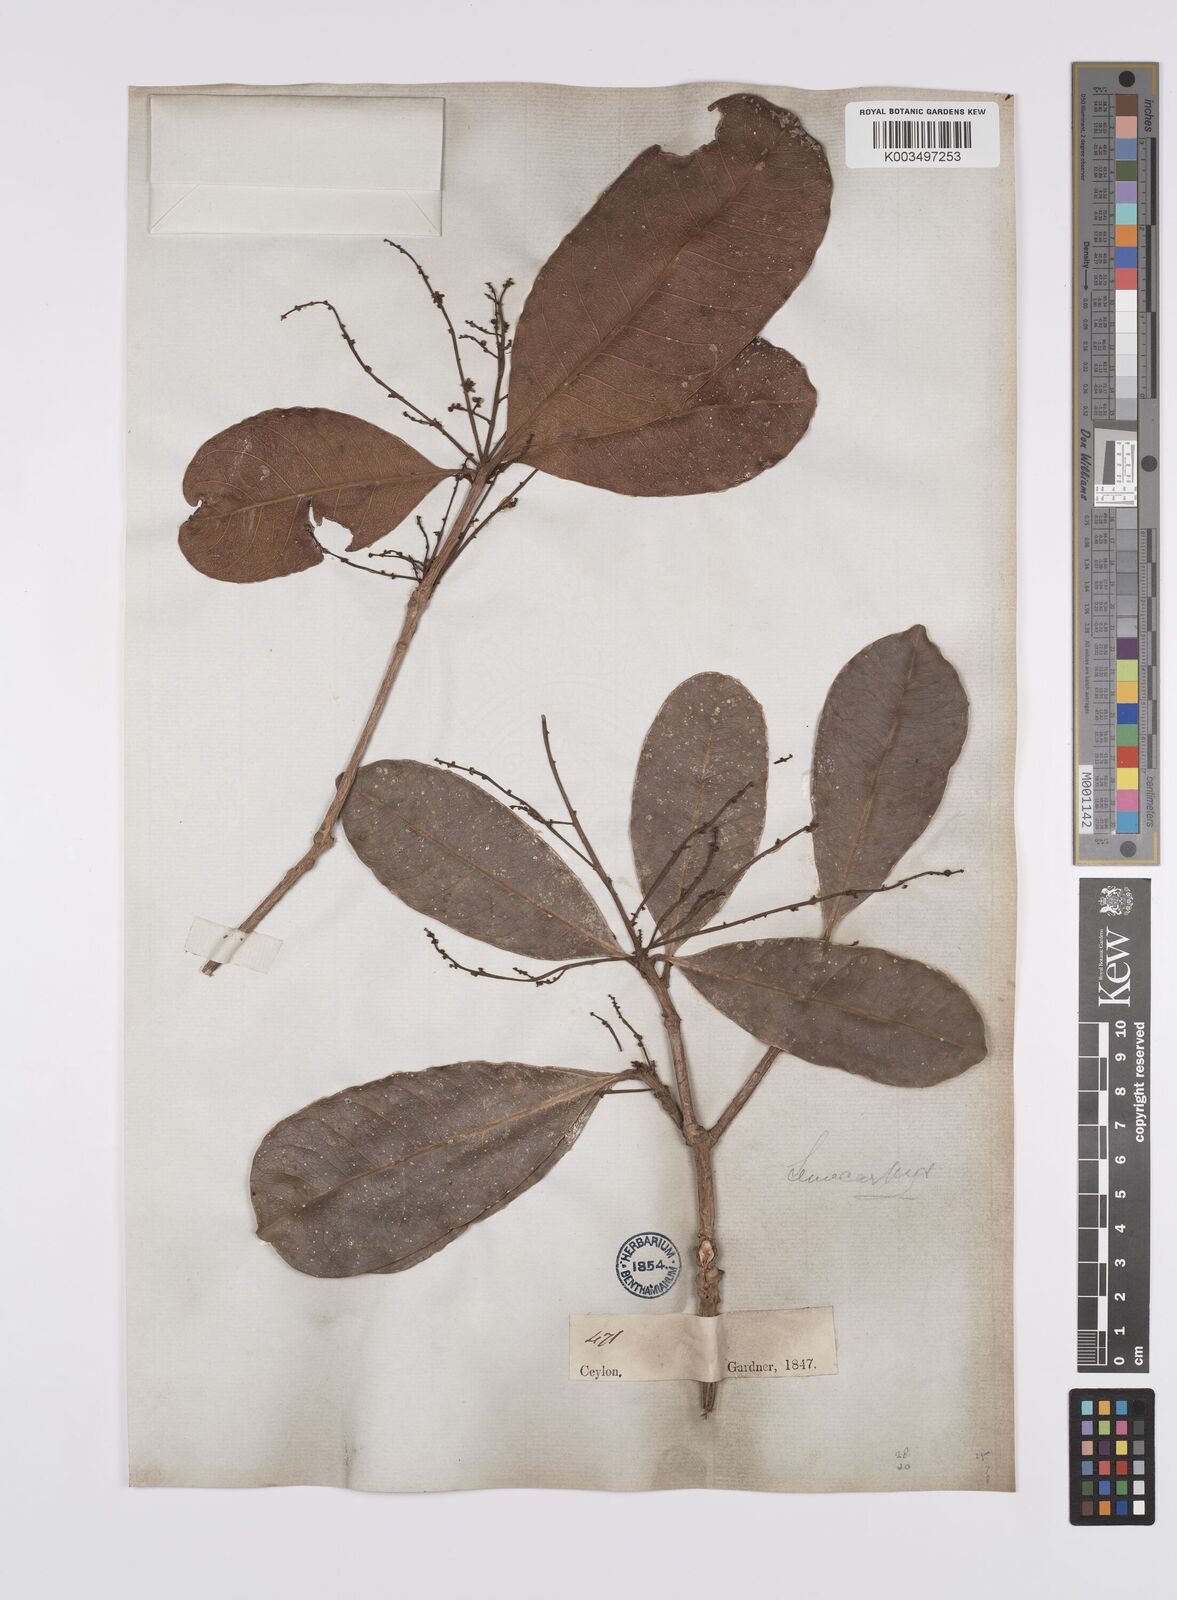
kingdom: Plantae
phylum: Tracheophyta
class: Magnoliopsida
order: Sapindales
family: Anacardiaceae
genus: Semecarpus
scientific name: Semecarpus walkeri
